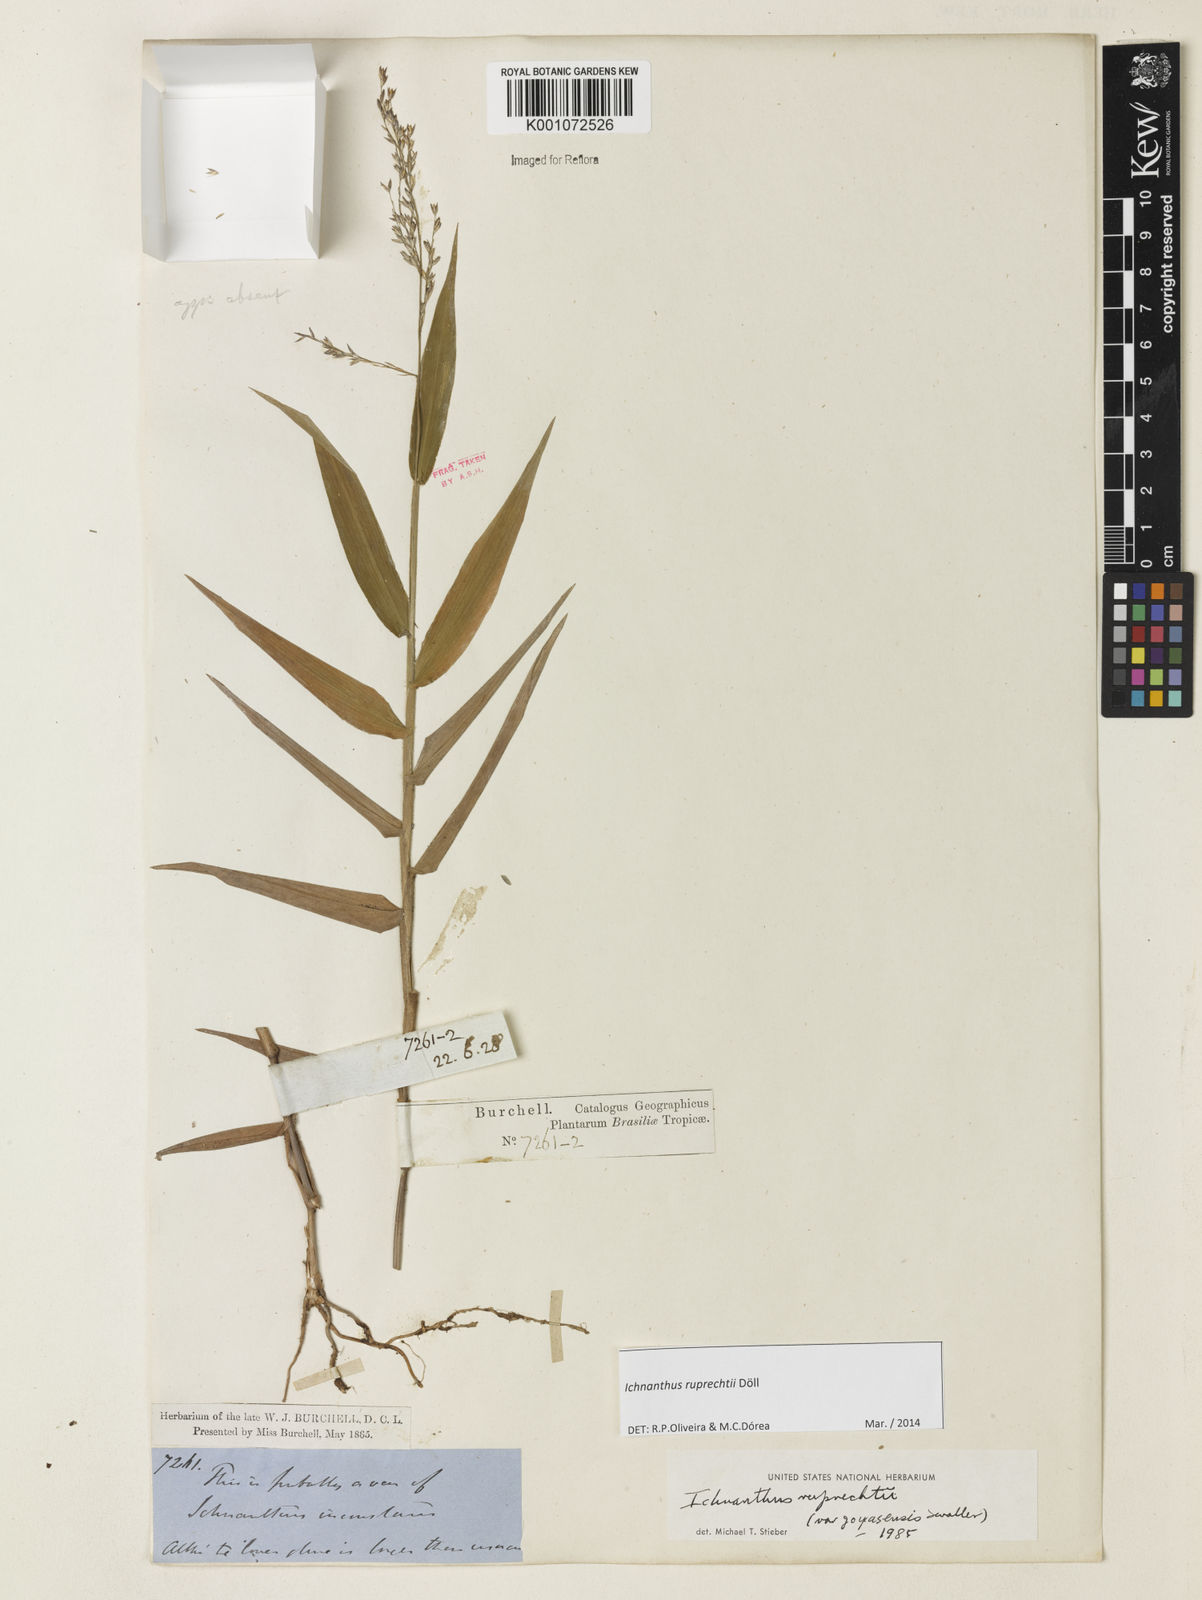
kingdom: Plantae
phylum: Tracheophyta
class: Liliopsida
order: Poales
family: Poaceae
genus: Ichnanthus
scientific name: Ichnanthus
